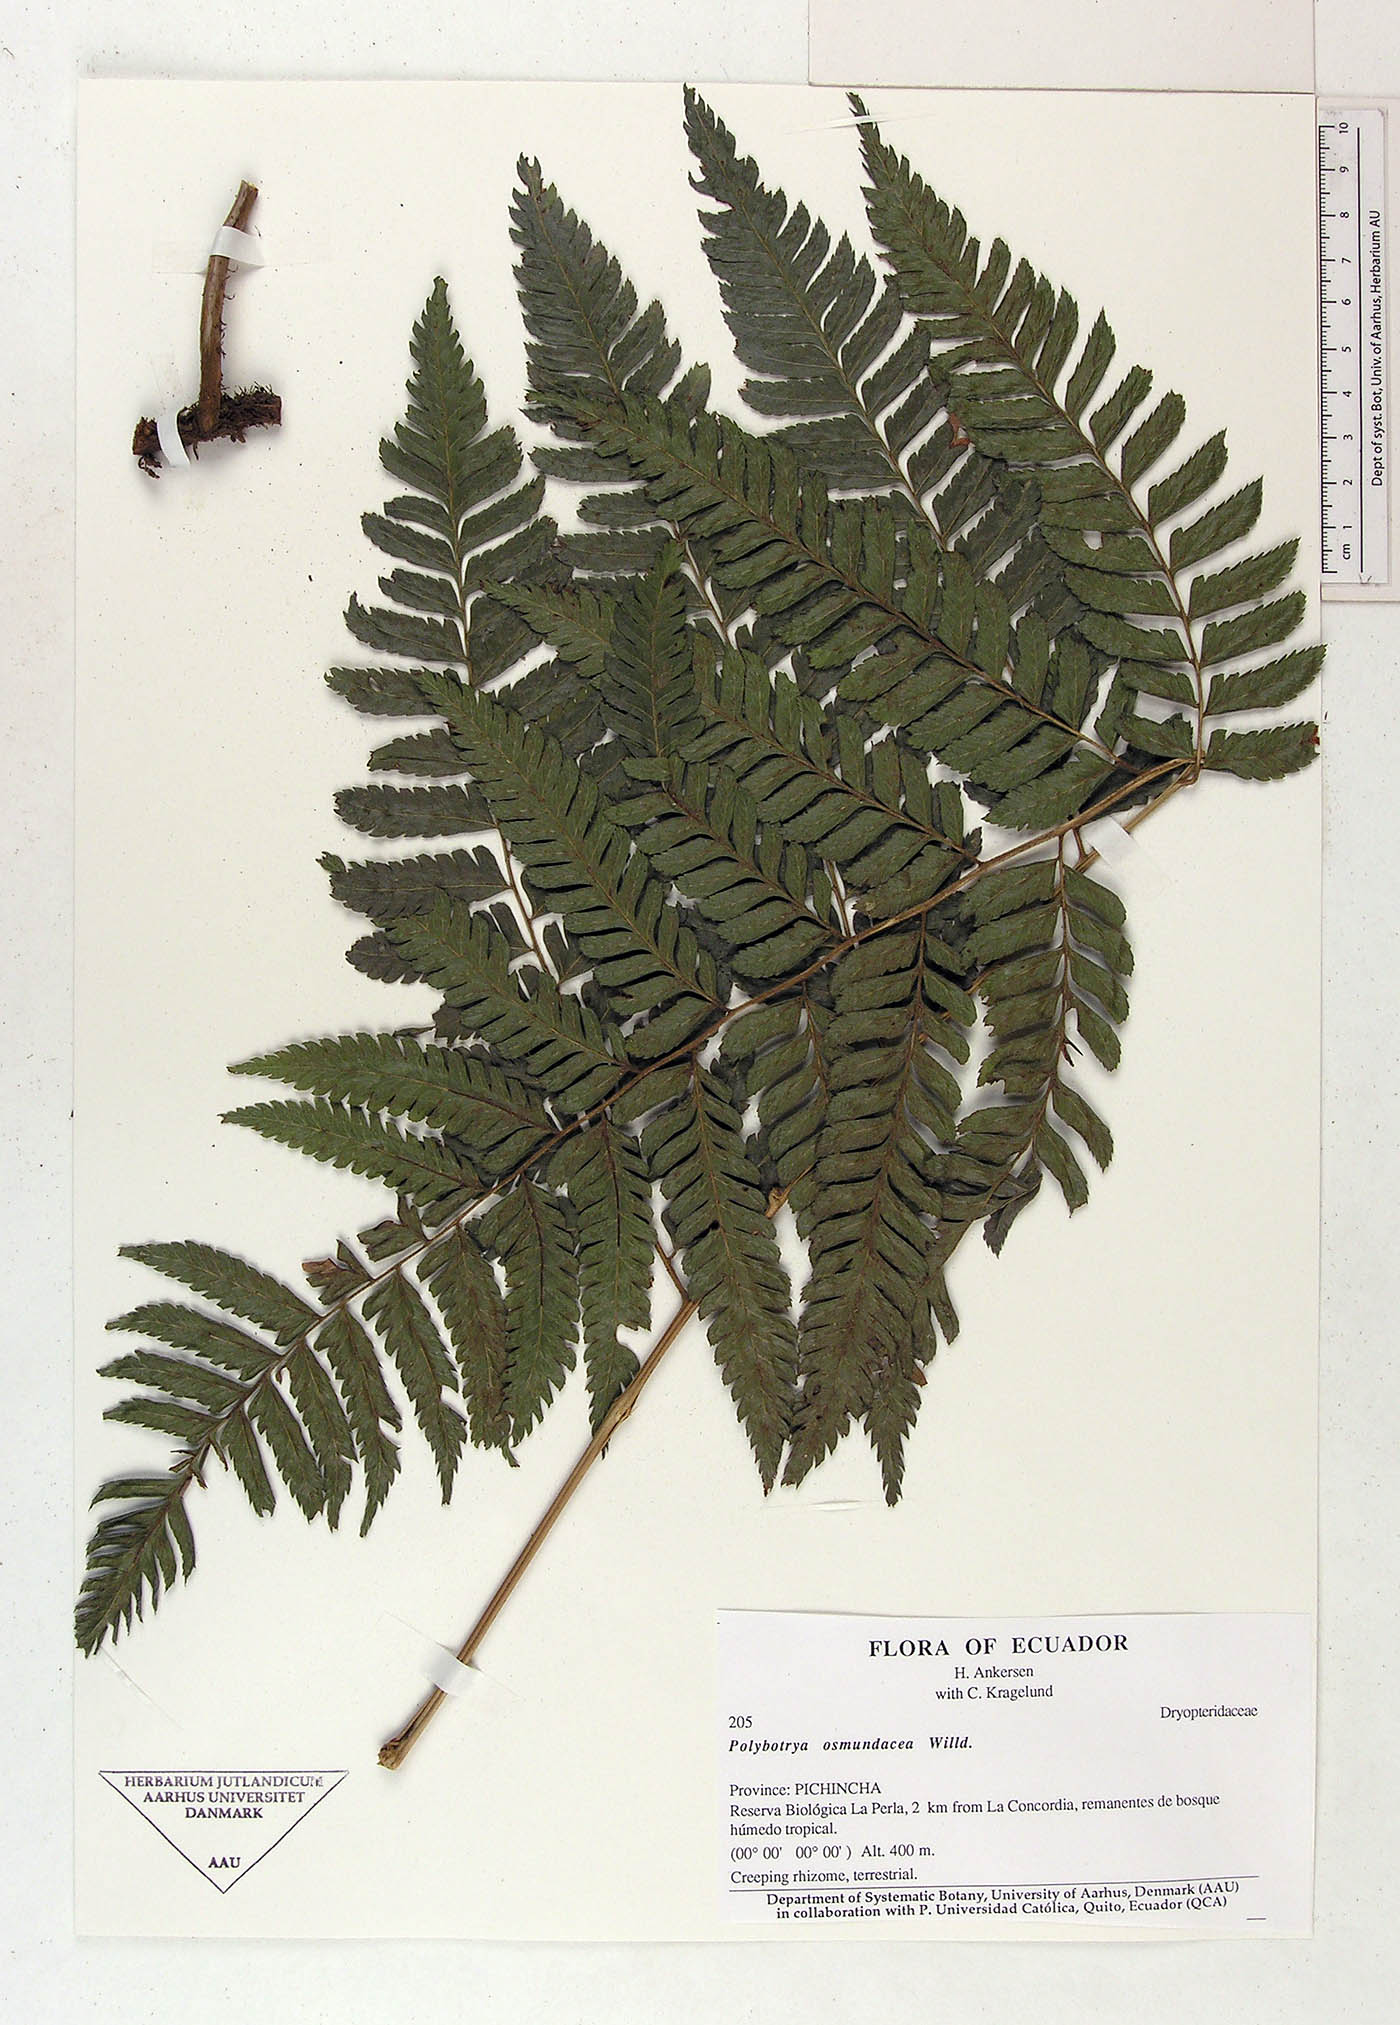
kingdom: Plantae
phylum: Tracheophyta
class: Polypodiopsida
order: Polypodiales
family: Dryopteridaceae
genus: Polybotrya
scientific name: Polybotrya osmundacea
